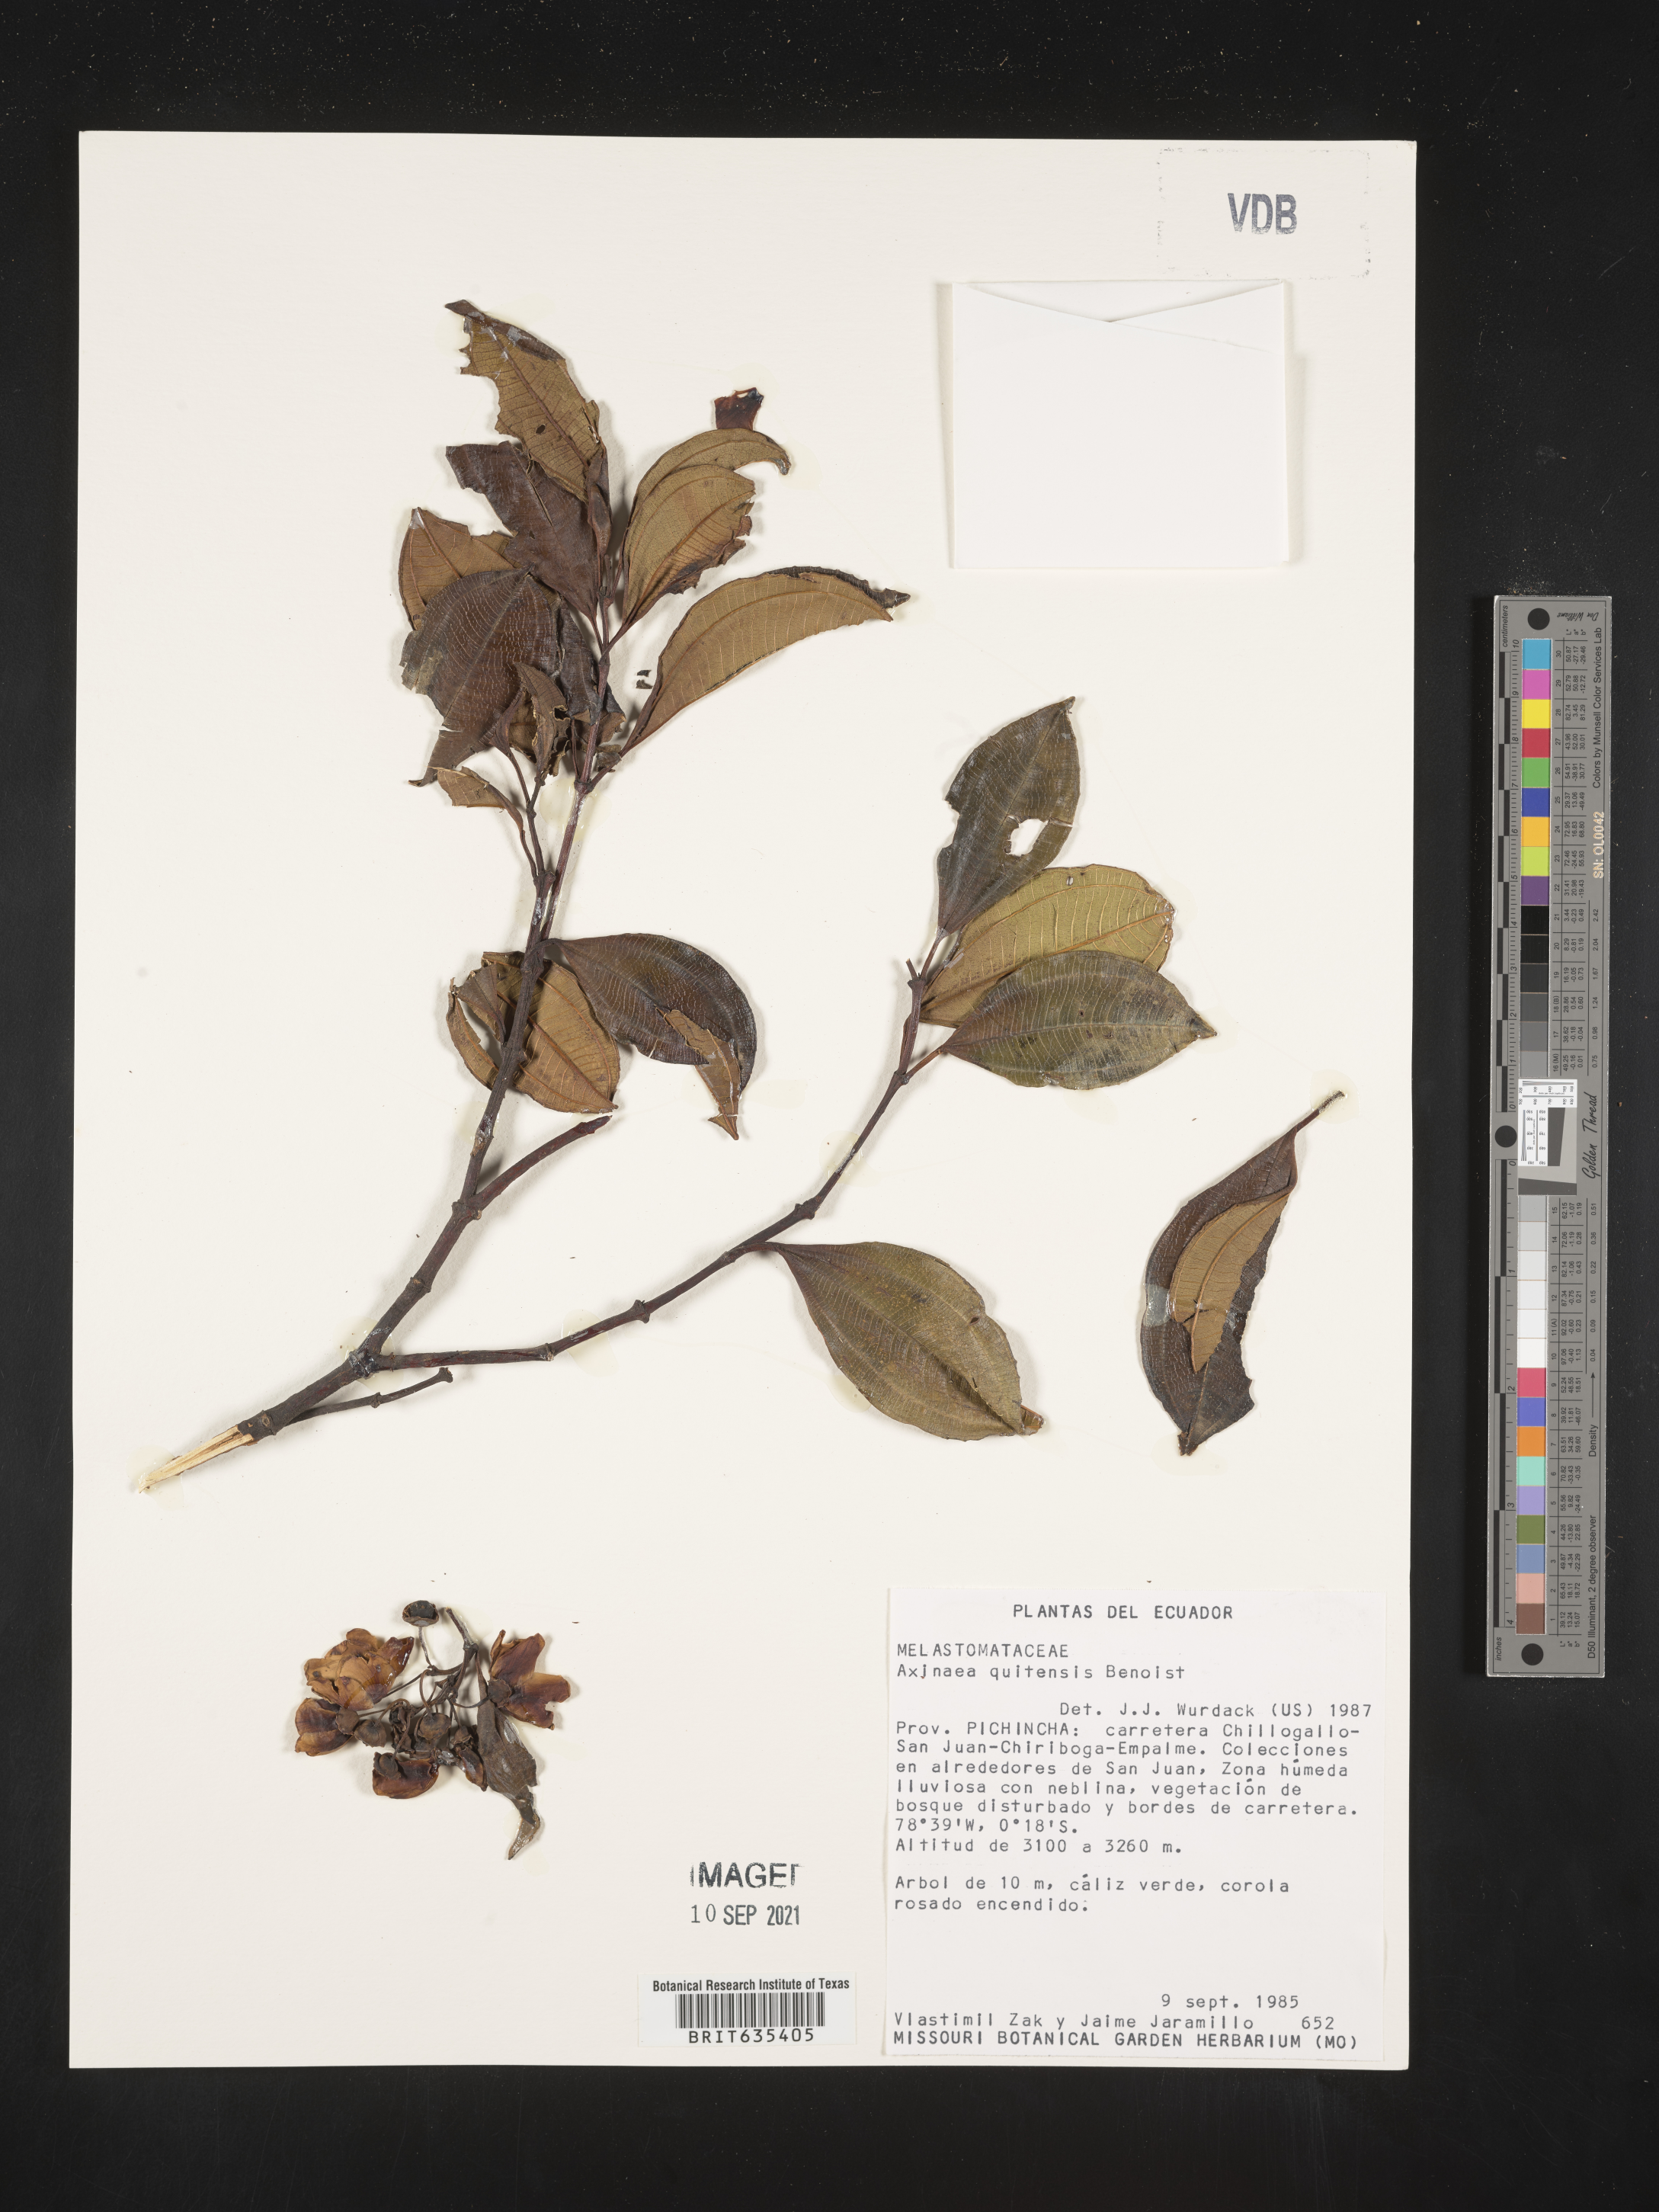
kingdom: Plantae
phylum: Tracheophyta
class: Magnoliopsida
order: Myrtales
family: Melastomataceae
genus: Axinaea
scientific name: Axinaea
